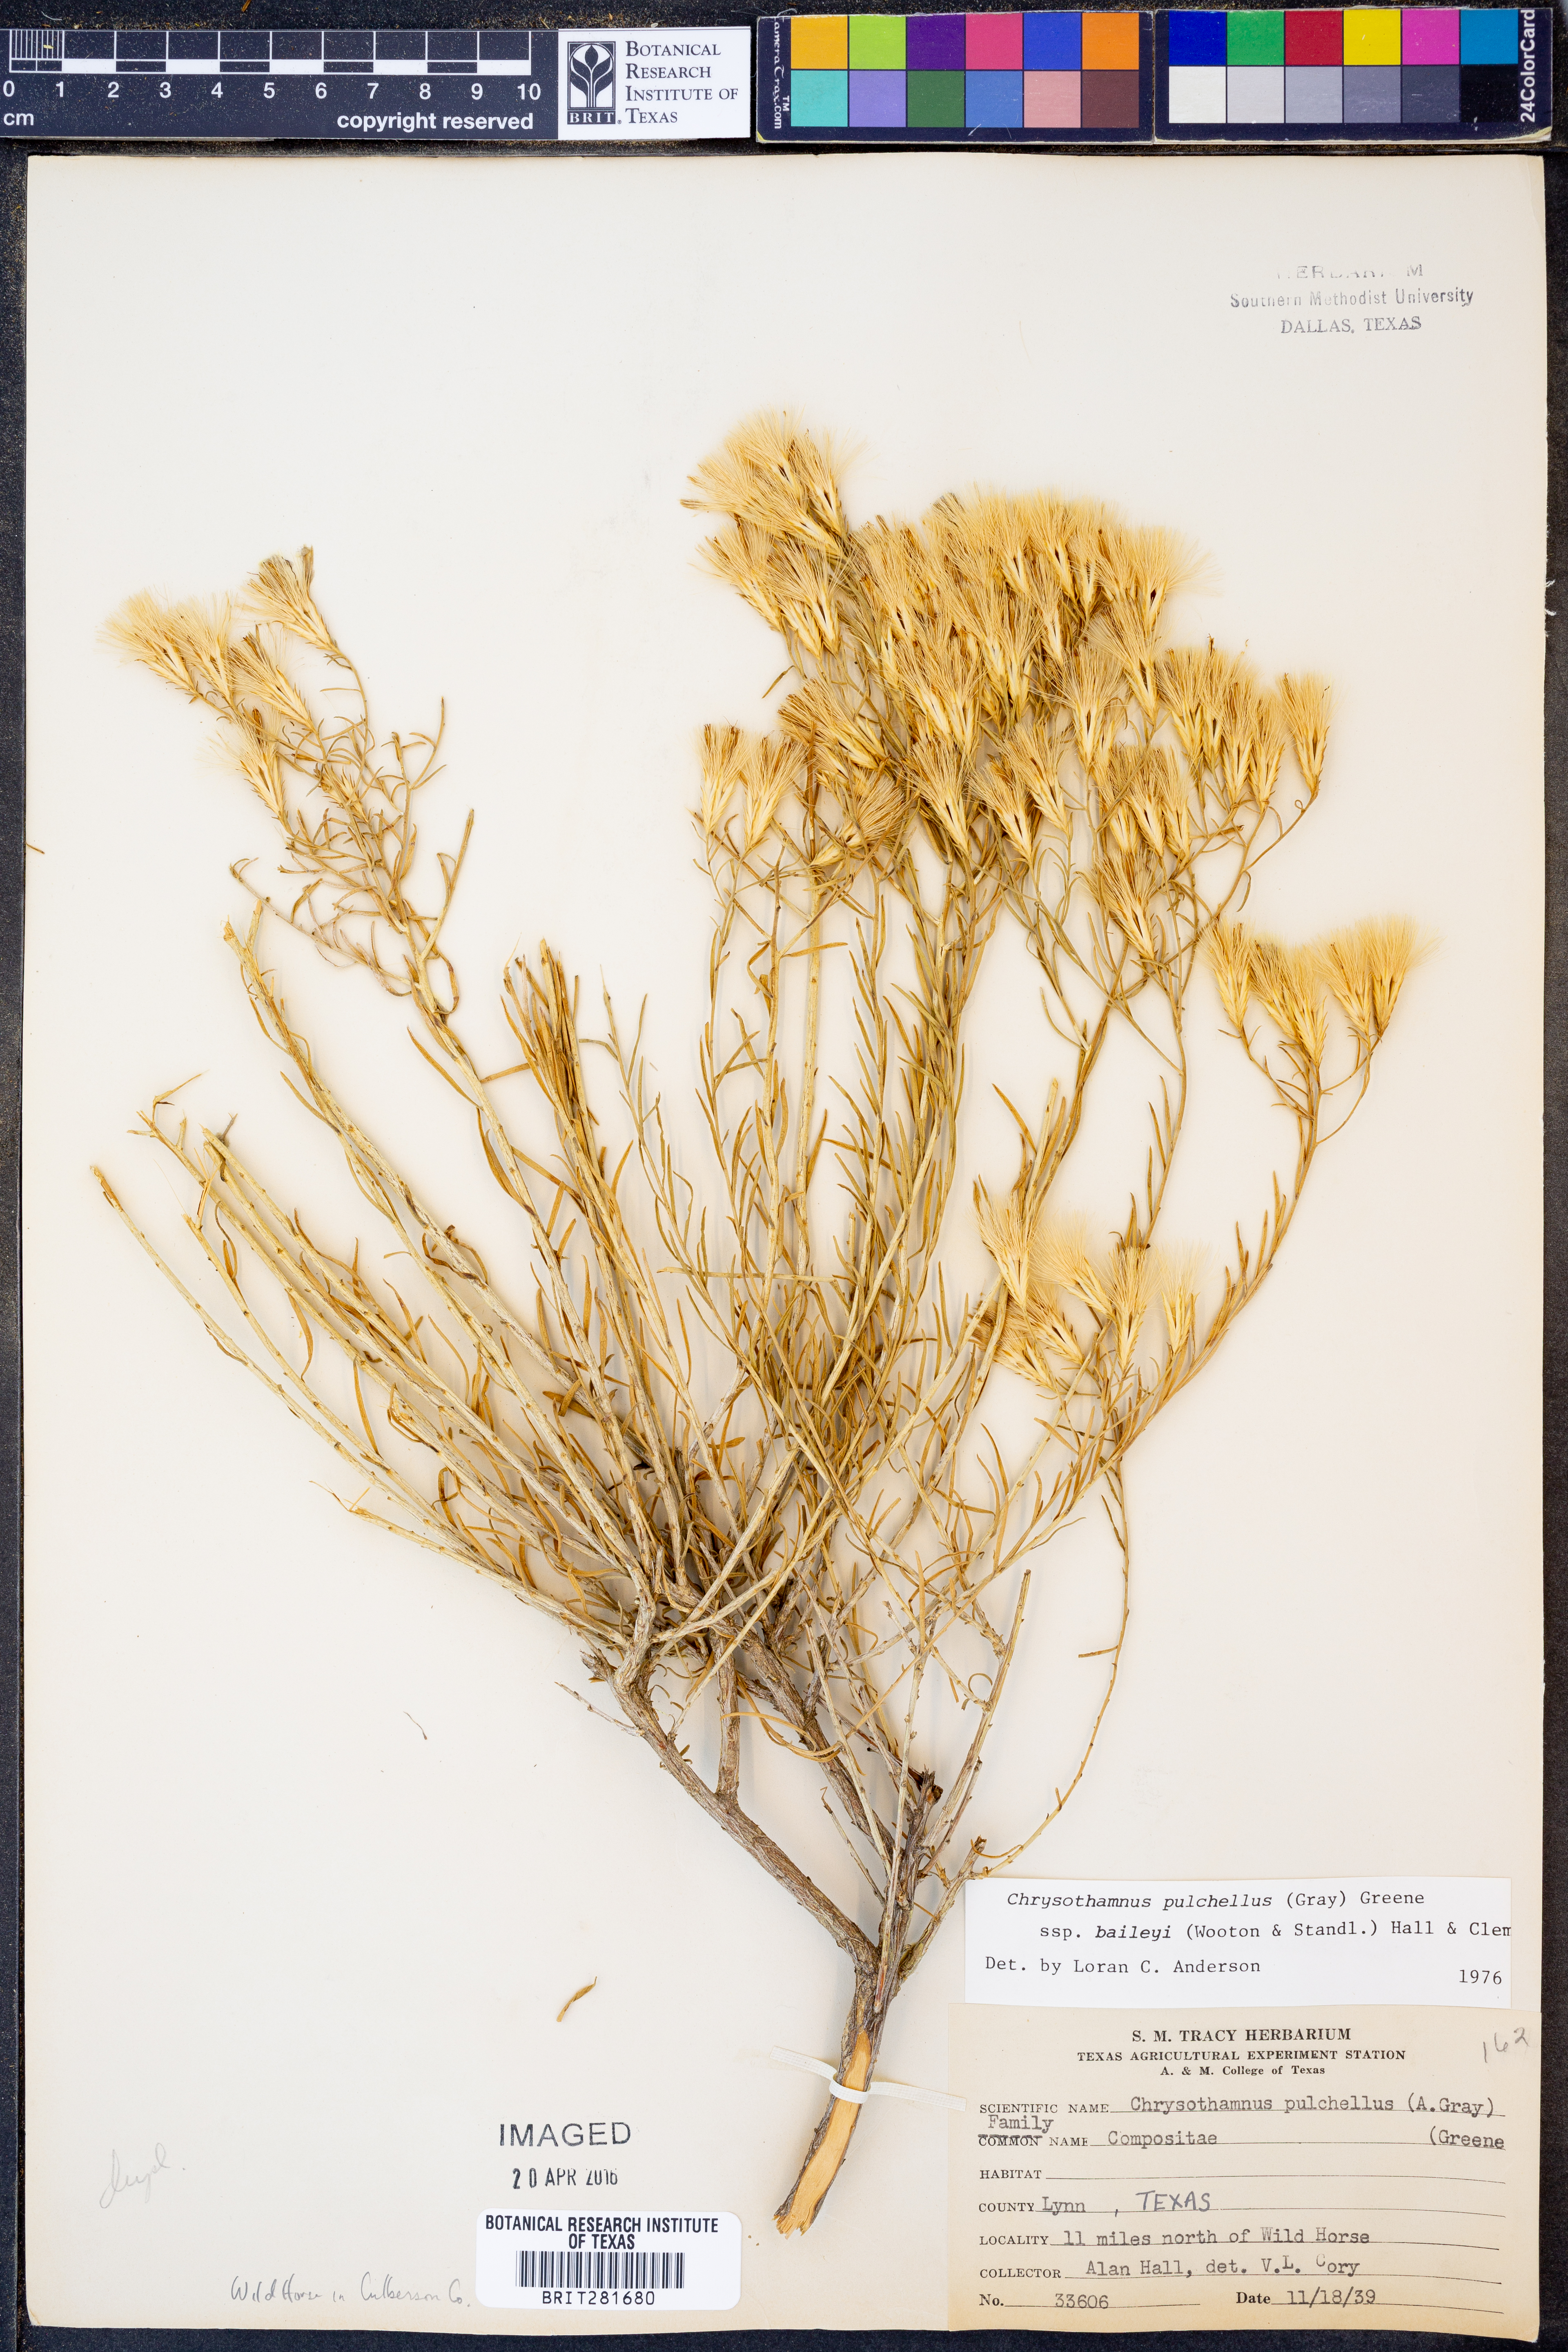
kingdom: Plantae
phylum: Tracheophyta
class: Magnoliopsida
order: Asterales
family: Asteraceae
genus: Lorandersonia
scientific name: Lorandersonia baileyi
